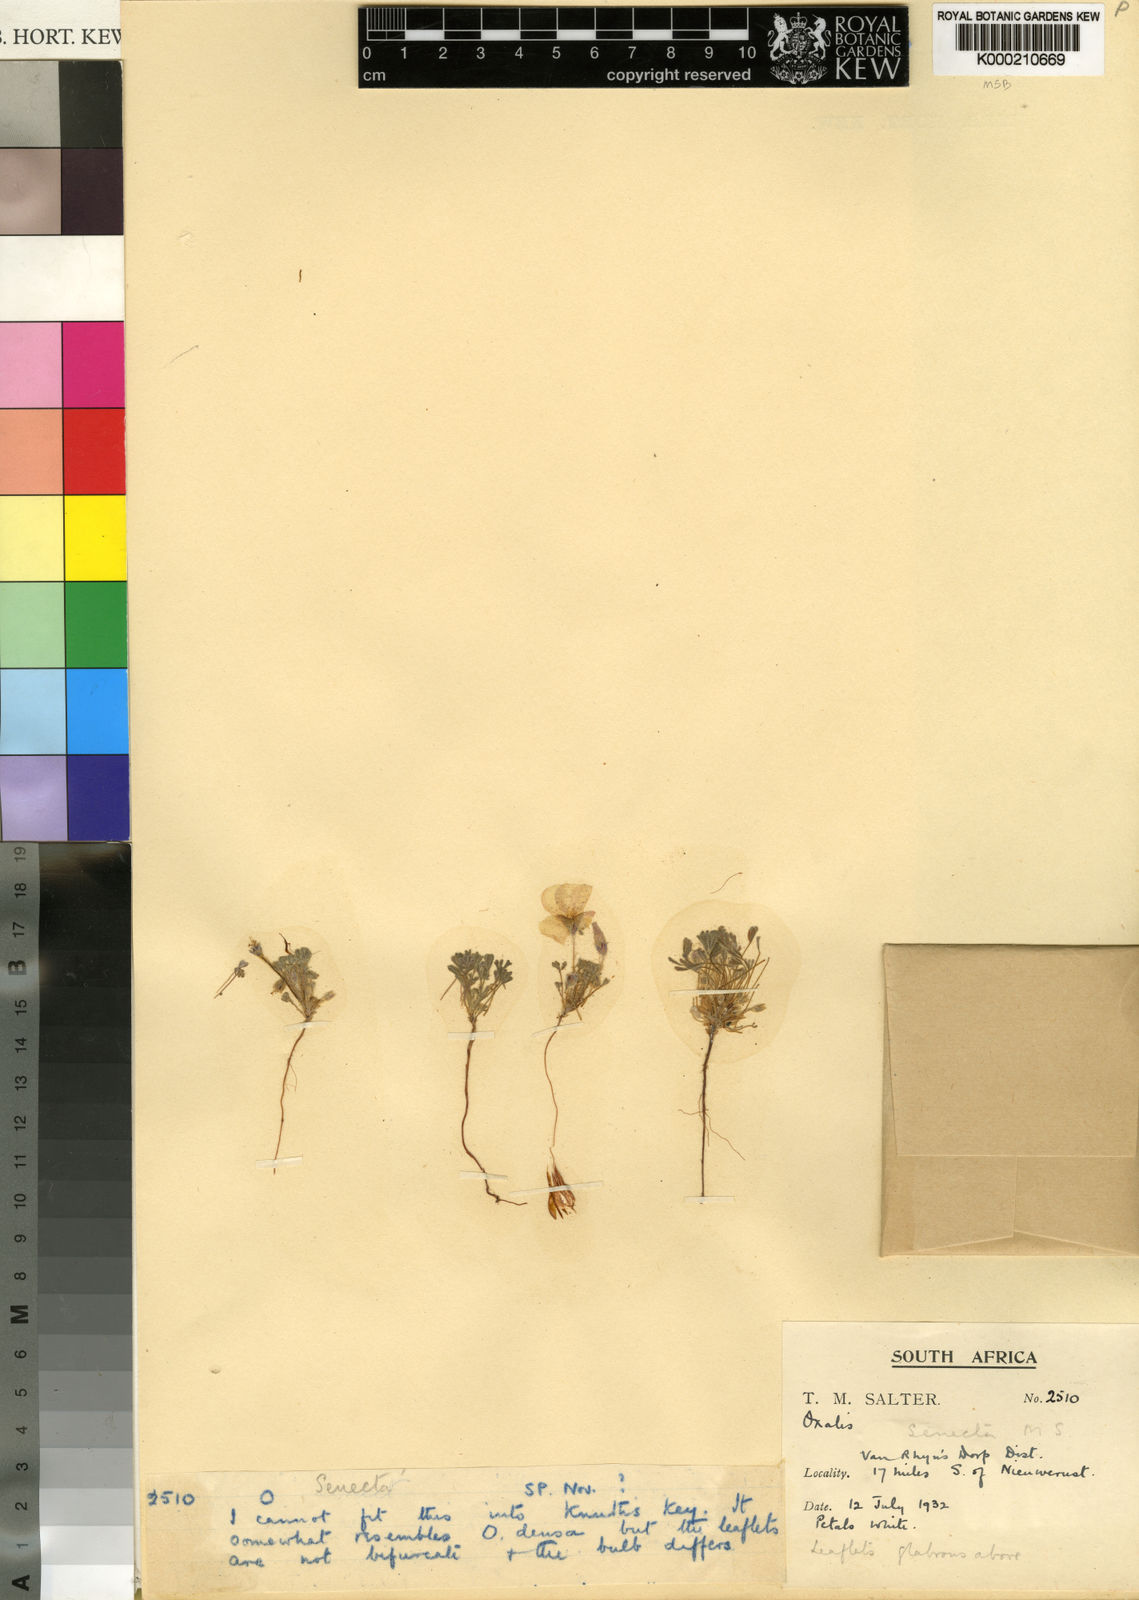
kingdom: Plantae
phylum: Tracheophyta
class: Magnoliopsida
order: Oxalidales
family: Oxalidaceae
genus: Oxalis
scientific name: Oxalis senecta
